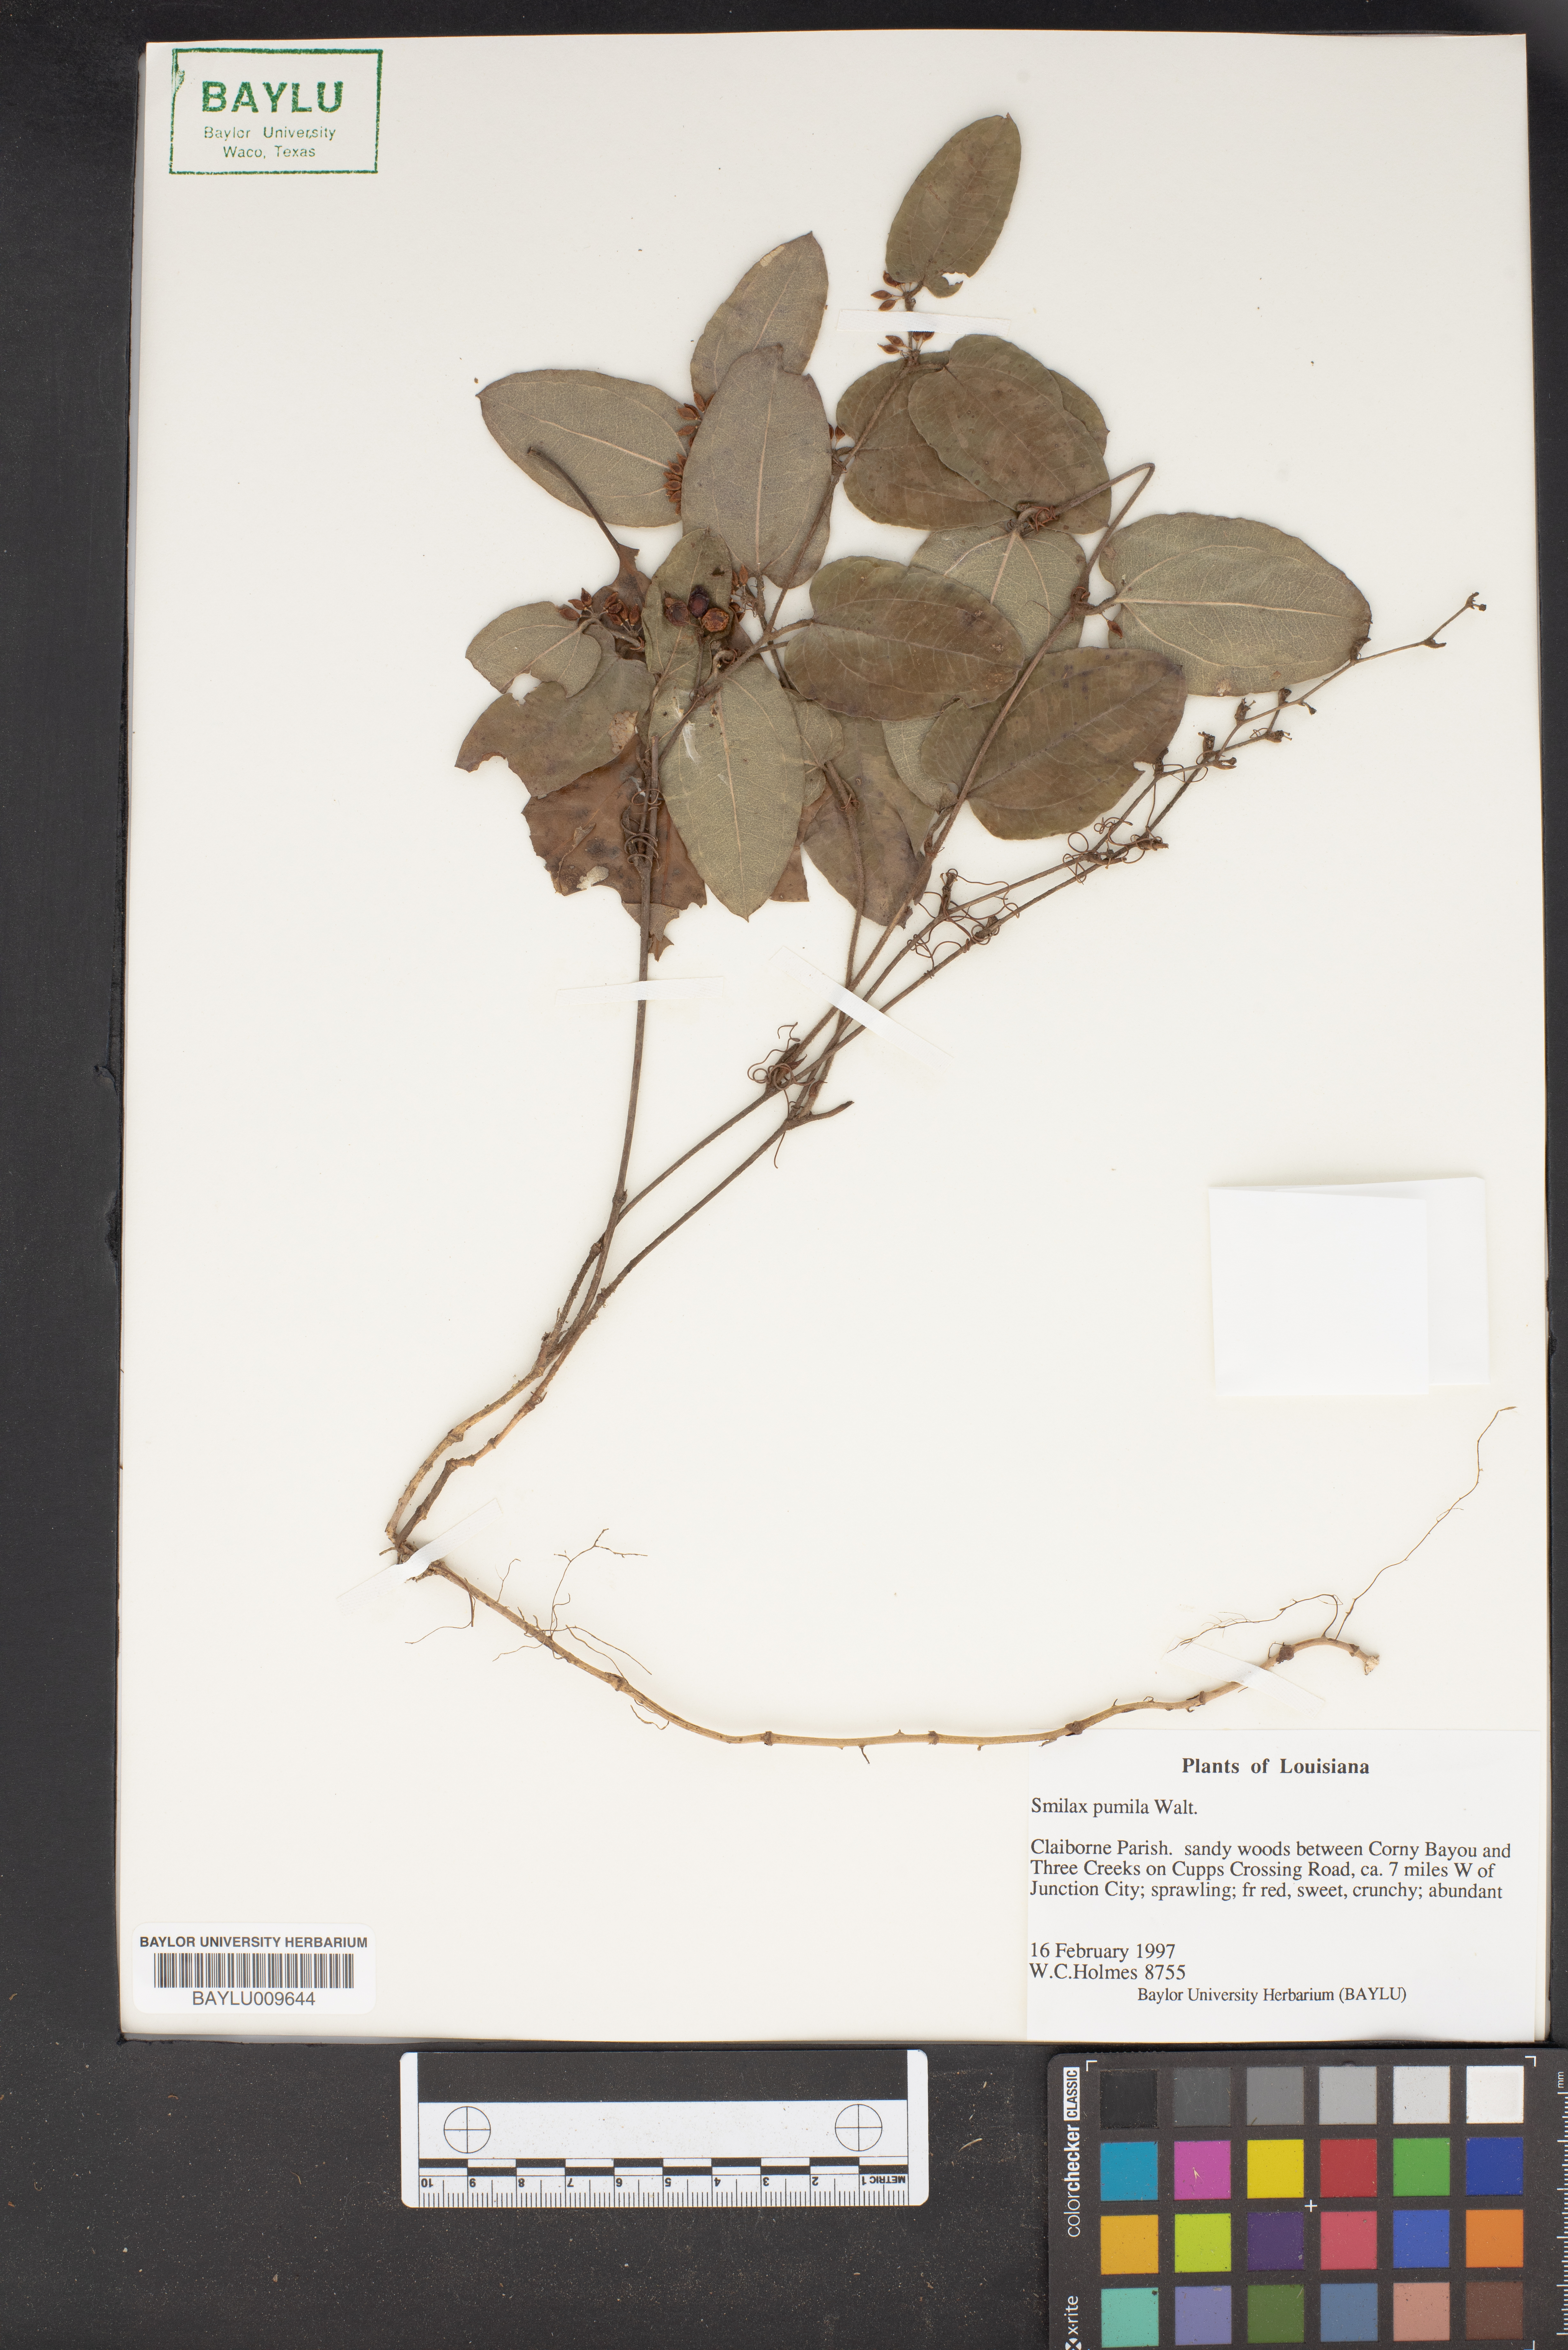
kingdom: Plantae
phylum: Tracheophyta
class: Liliopsida
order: Liliales
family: Smilacaceae
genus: Smilax
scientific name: Smilax pumila
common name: Sarsaparilla-vine
